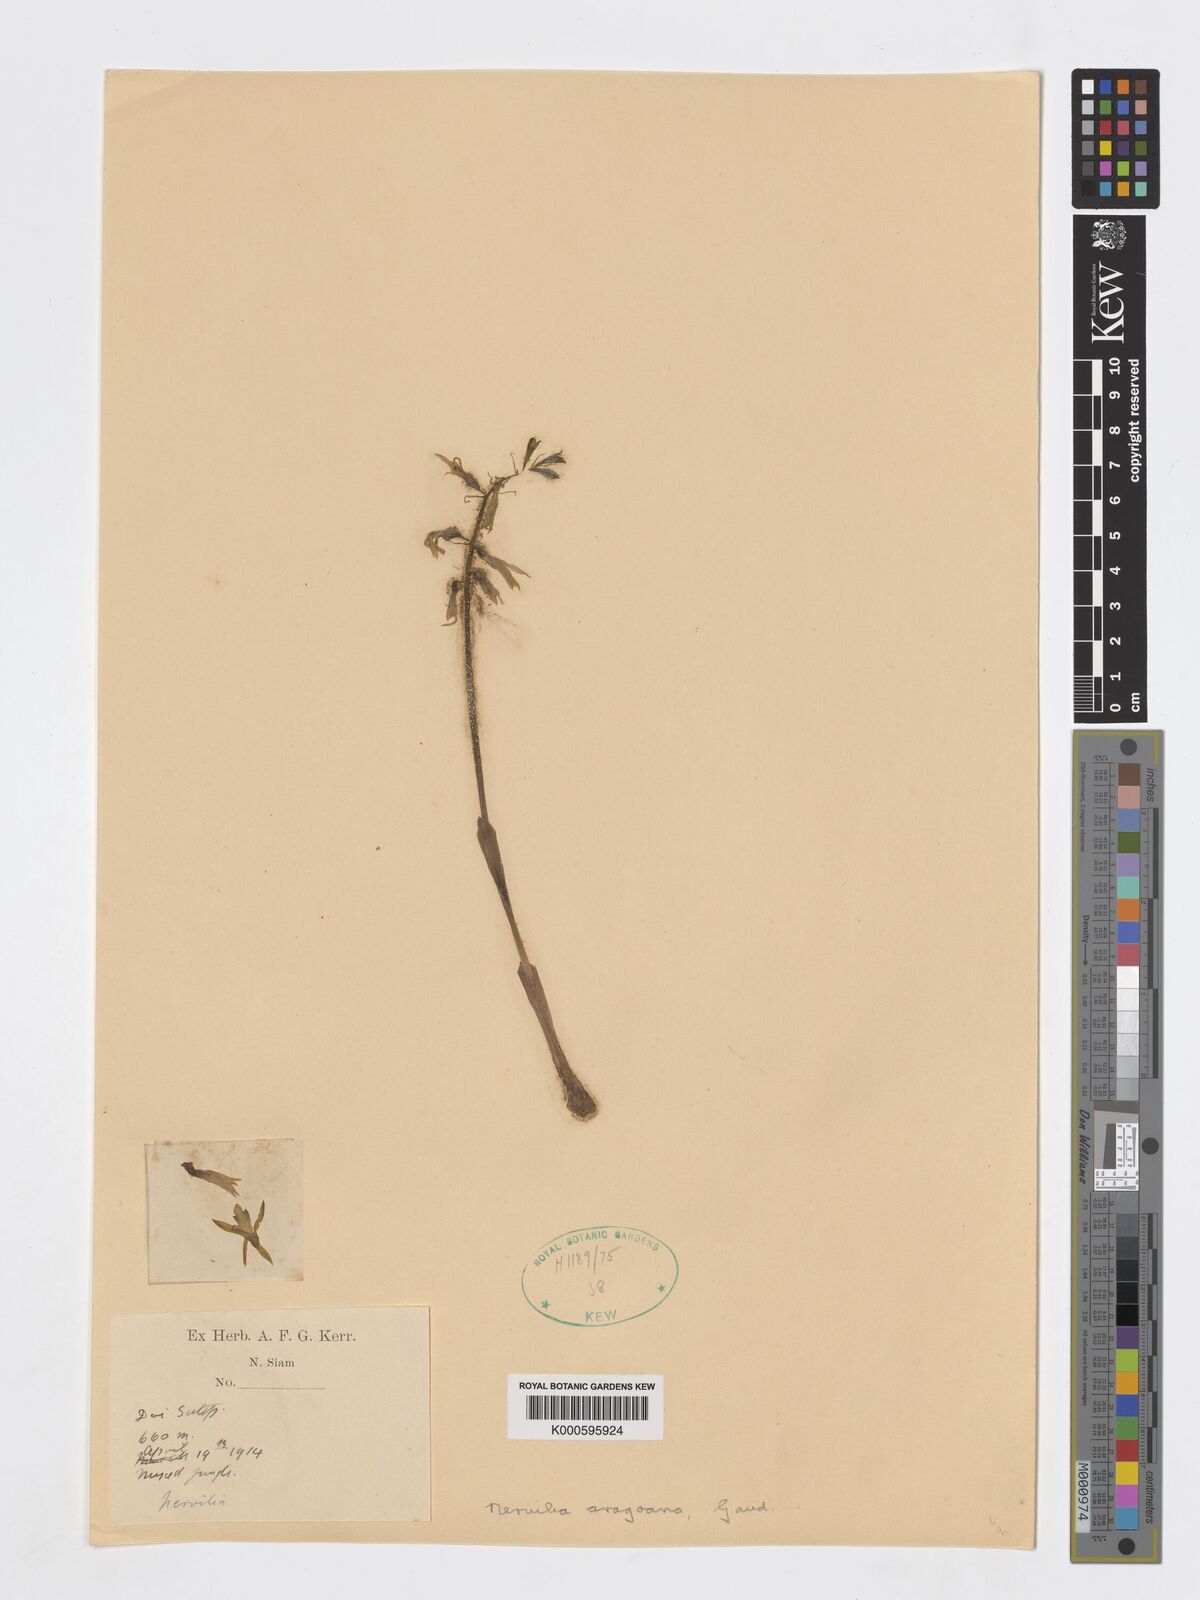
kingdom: Plantae
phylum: Tracheophyta
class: Liliopsida
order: Asparagales
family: Orchidaceae
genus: Nervilia
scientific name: Nervilia concolor
